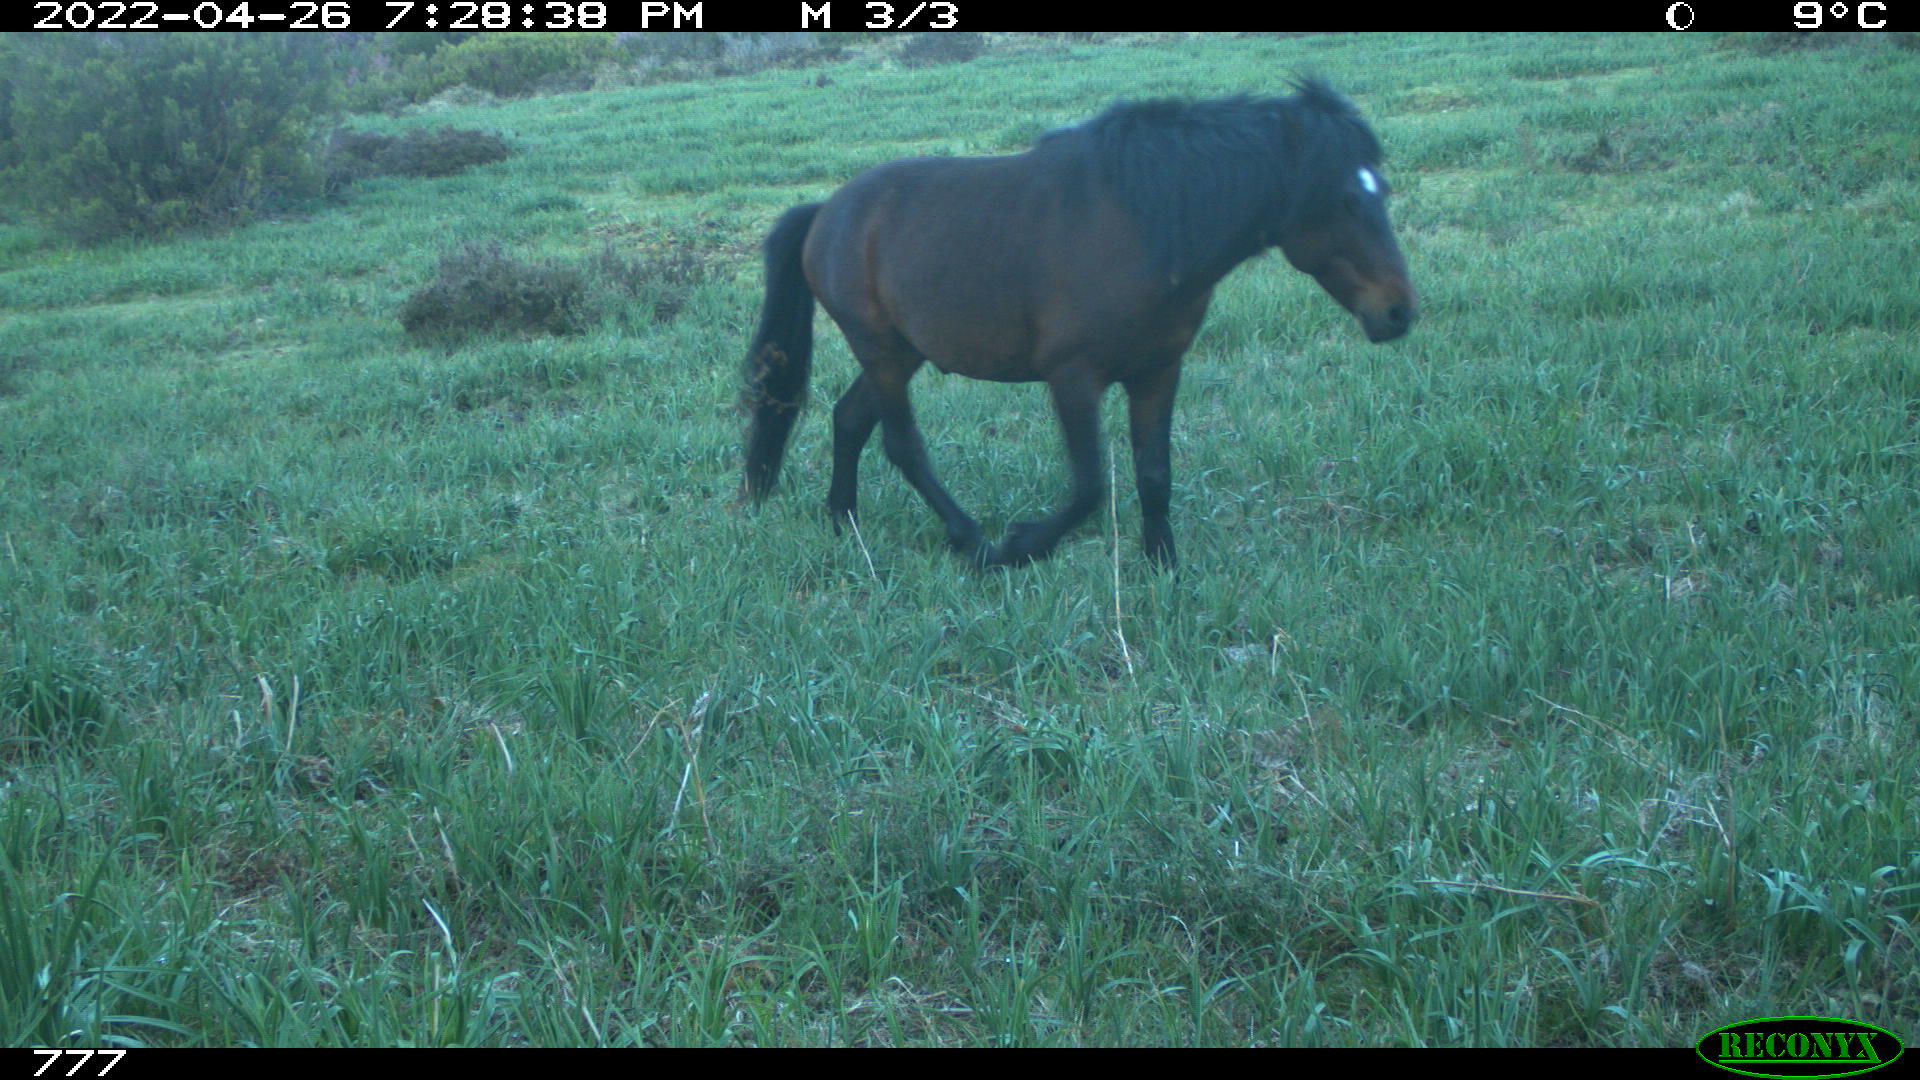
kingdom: Animalia
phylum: Chordata
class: Mammalia
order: Perissodactyla
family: Equidae
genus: Equus
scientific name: Equus caballus
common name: Horse
